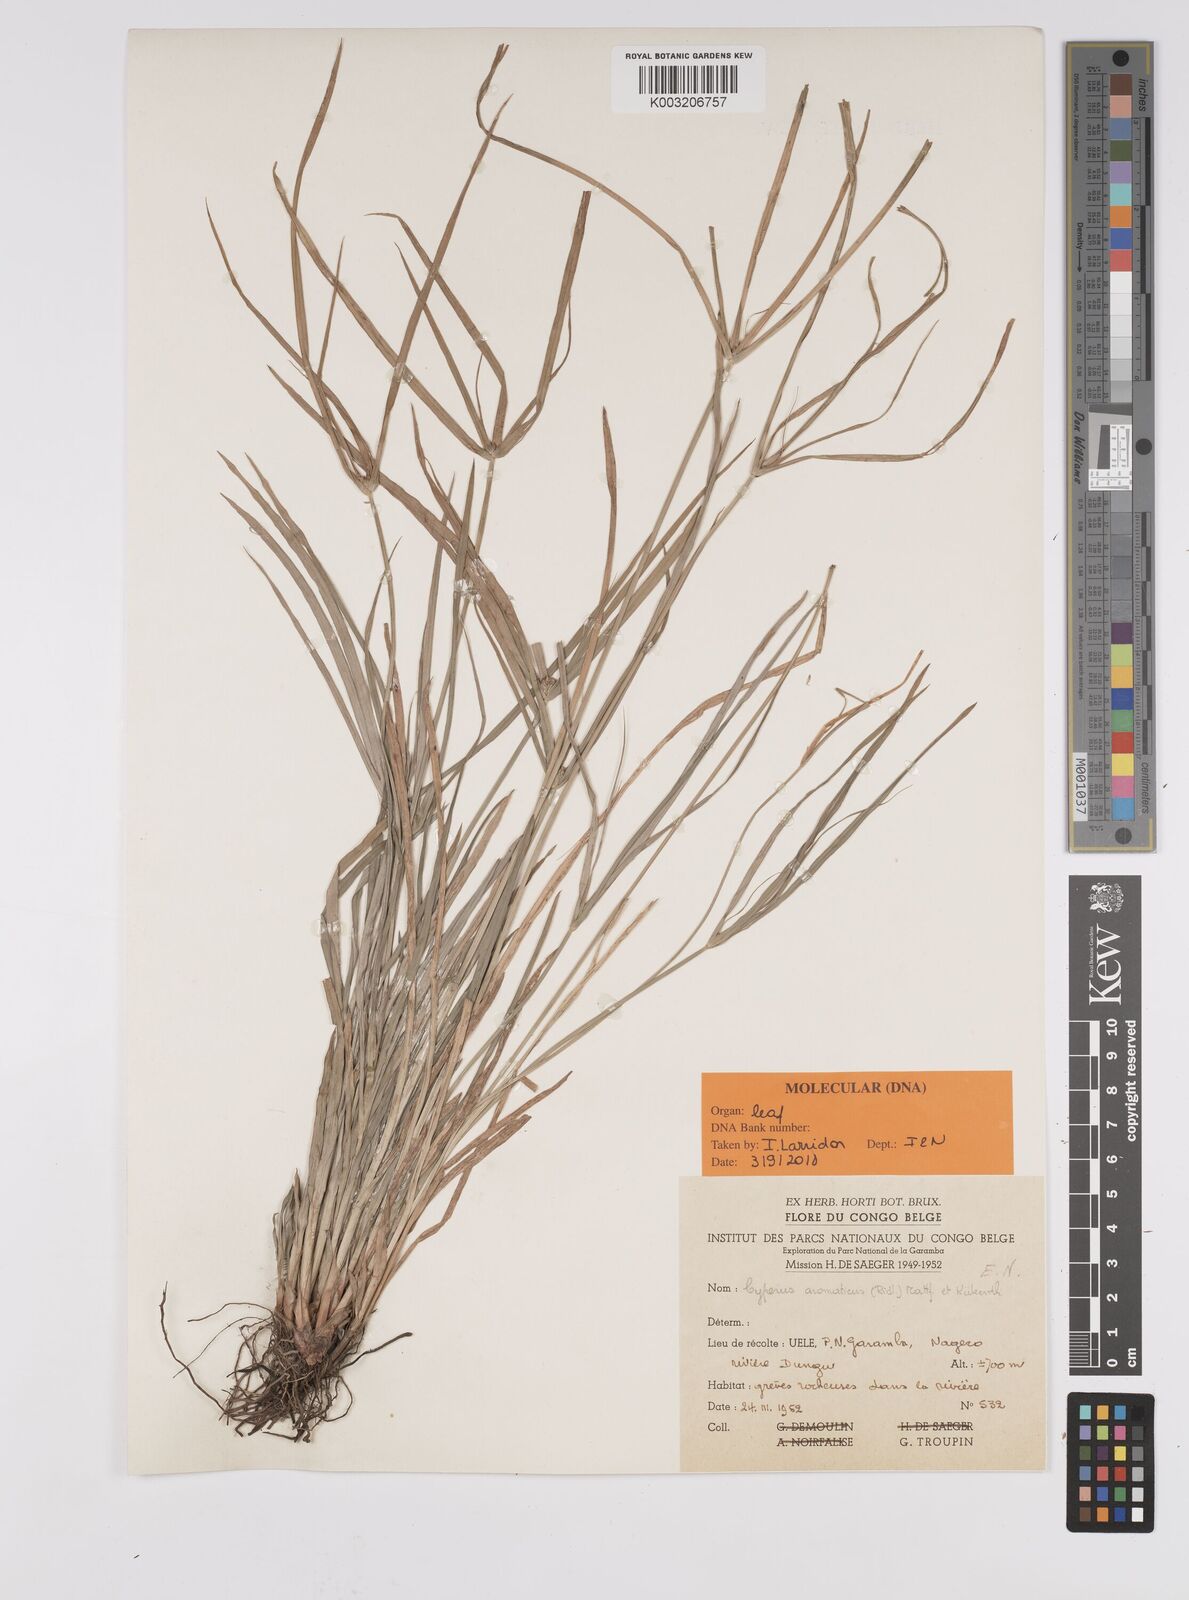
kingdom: Plantae
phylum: Tracheophyta
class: Liliopsida
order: Poales
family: Cyperaceae
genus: Cyperus
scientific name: Cyperus
